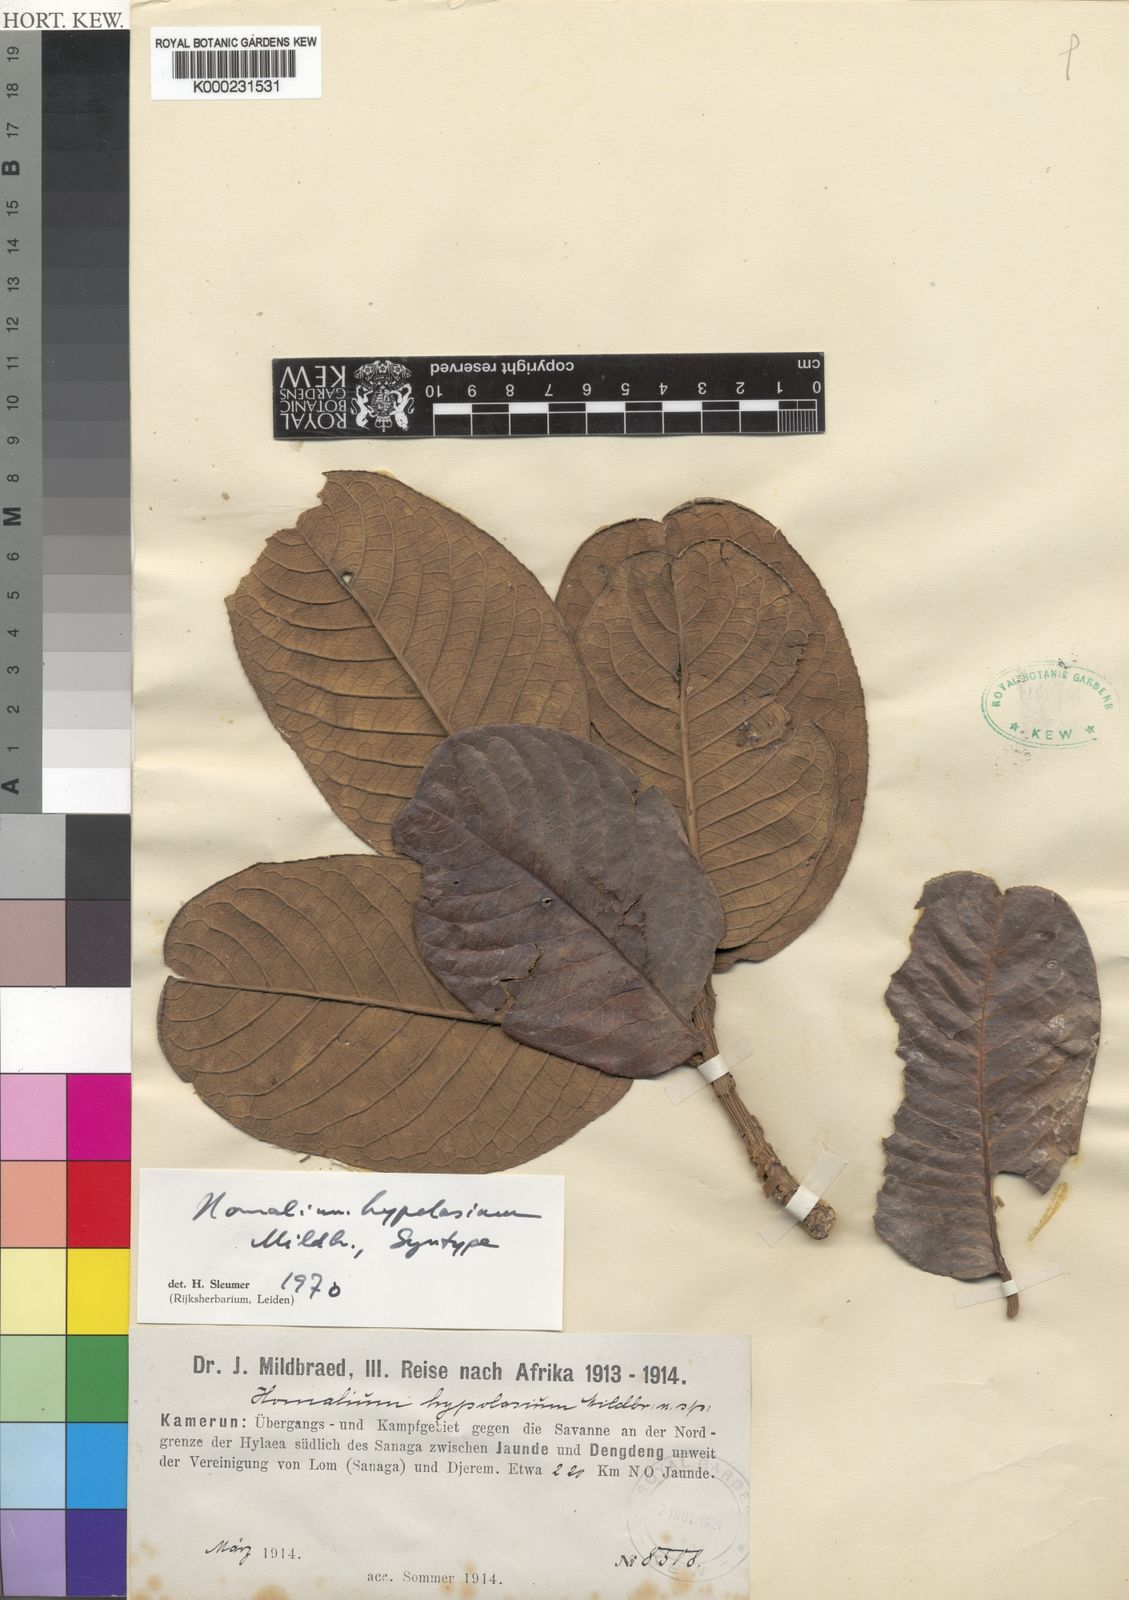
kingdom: Plantae
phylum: Tracheophyta
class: Magnoliopsida
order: Malpighiales
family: Salicaceae
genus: Homalium
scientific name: Homalium hypolasium
